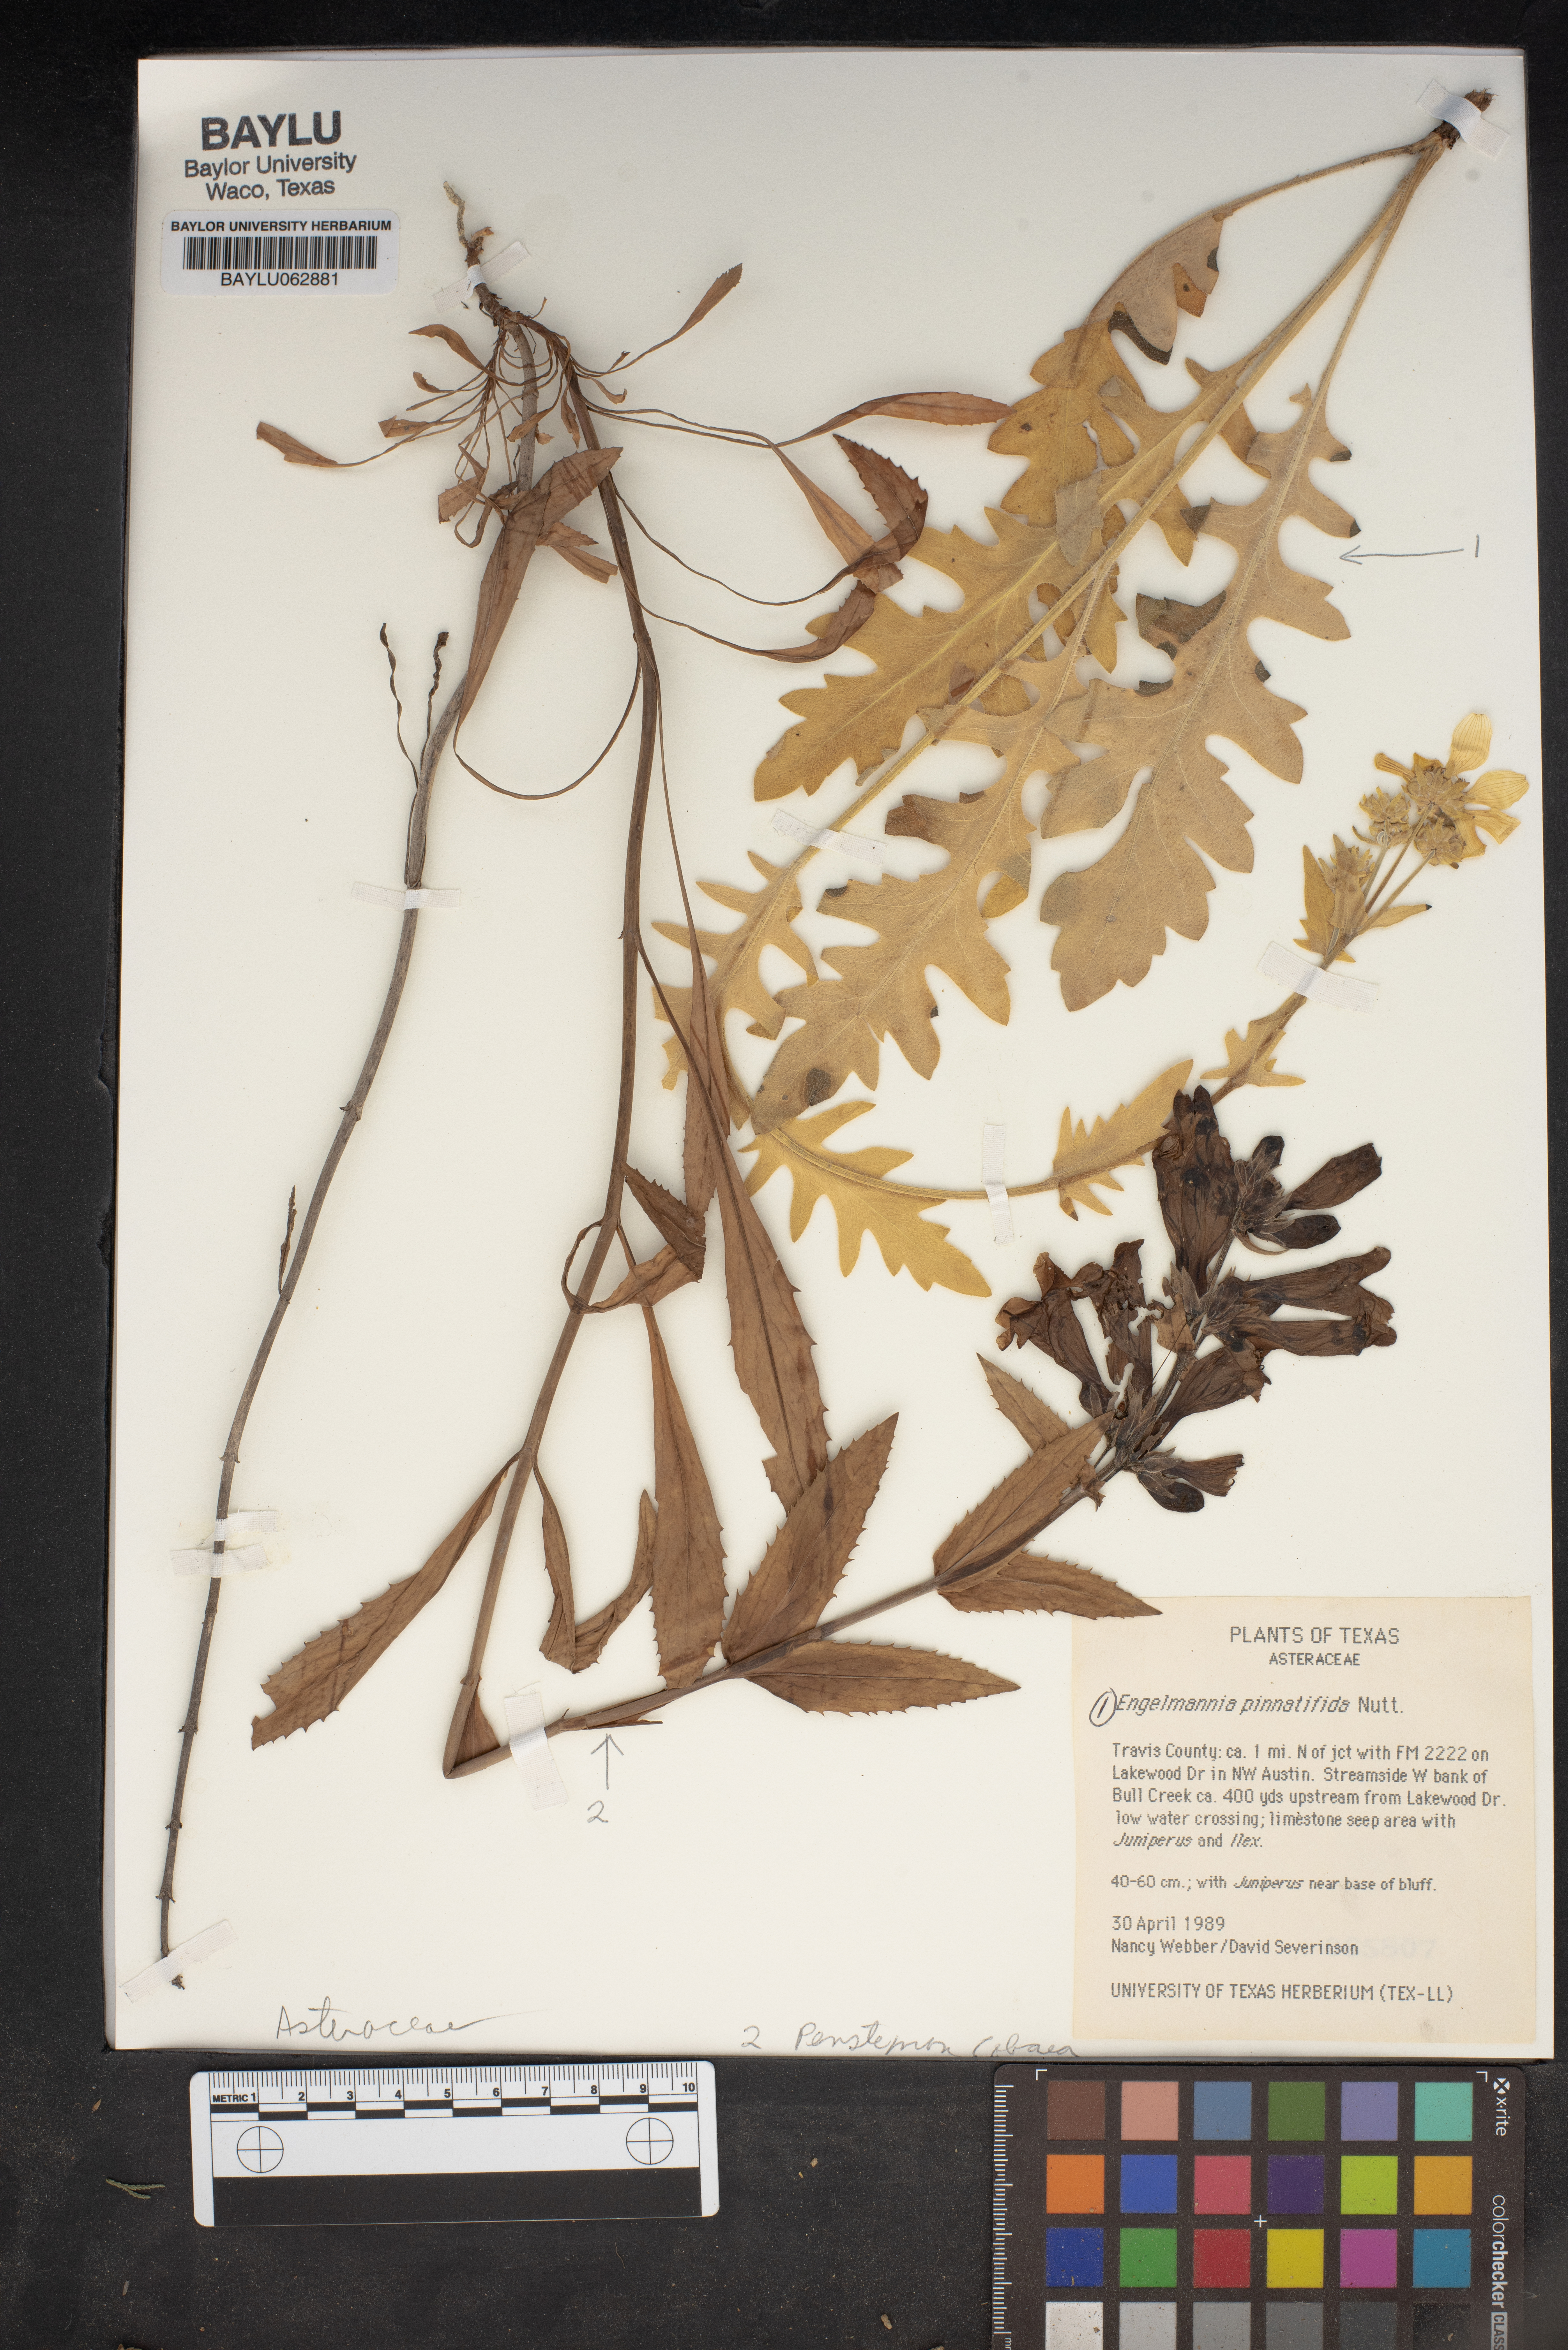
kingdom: Plantae
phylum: Tracheophyta
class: Magnoliopsida
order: Asterales
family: Asteraceae
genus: Engelmannia
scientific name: Engelmannia peristenia
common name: Engelmann's daisy
